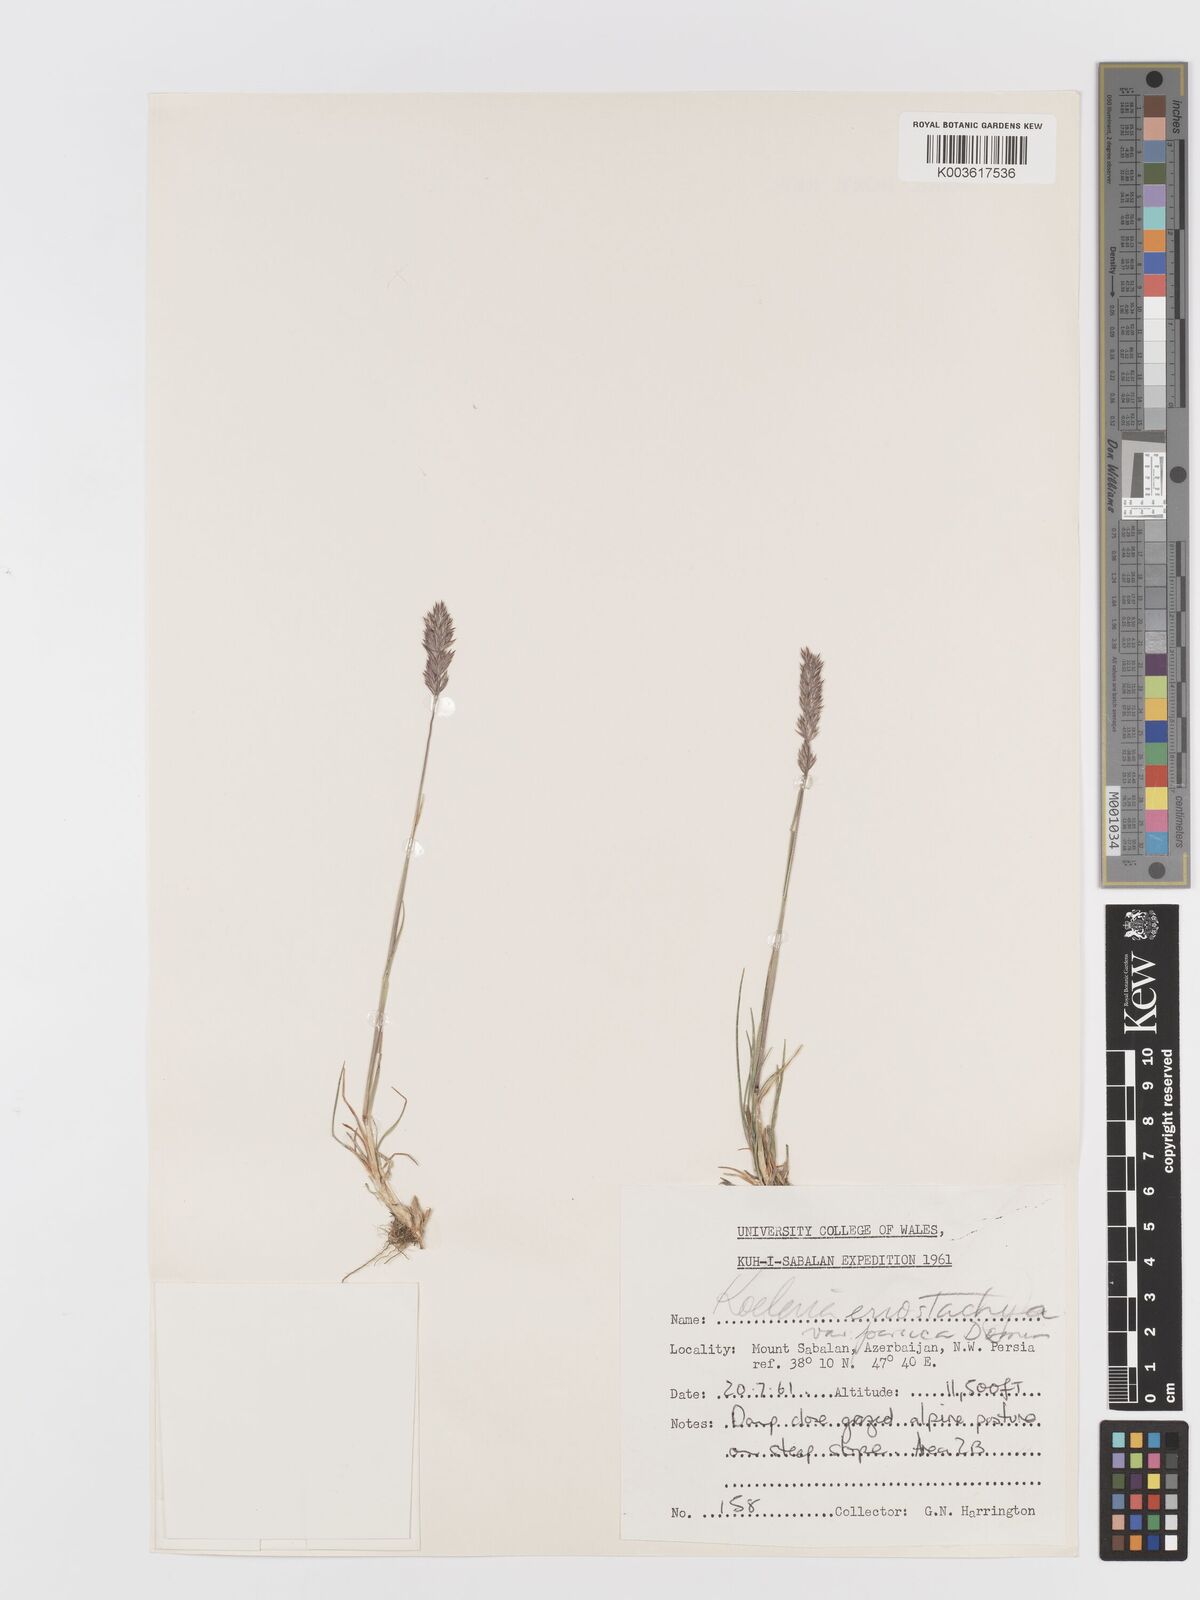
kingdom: Plantae
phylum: Tracheophyta
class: Liliopsida
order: Poales
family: Poaceae
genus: Koeleria
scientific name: Koeleria eriostachya
